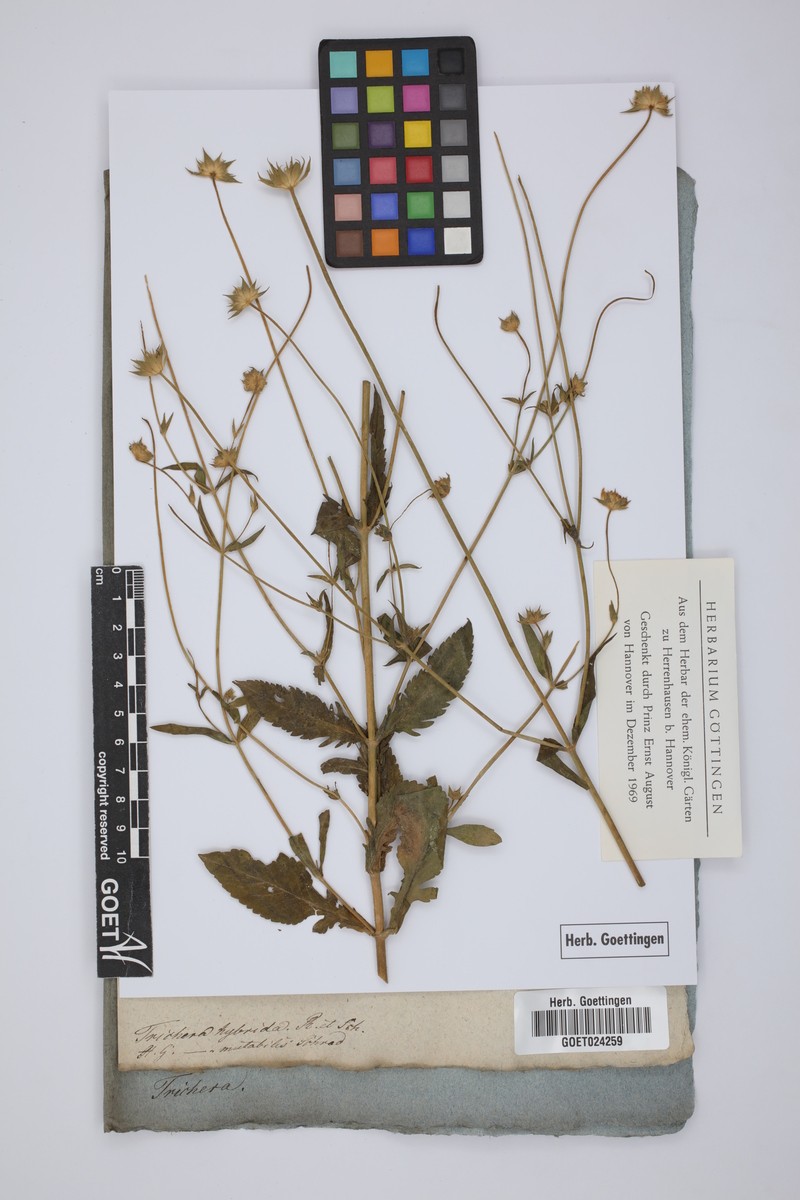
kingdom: Plantae
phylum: Tracheophyta
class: Magnoliopsida
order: Dipsacales
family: Caprifoliaceae
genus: Knautia
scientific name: Knautia integrifolia
